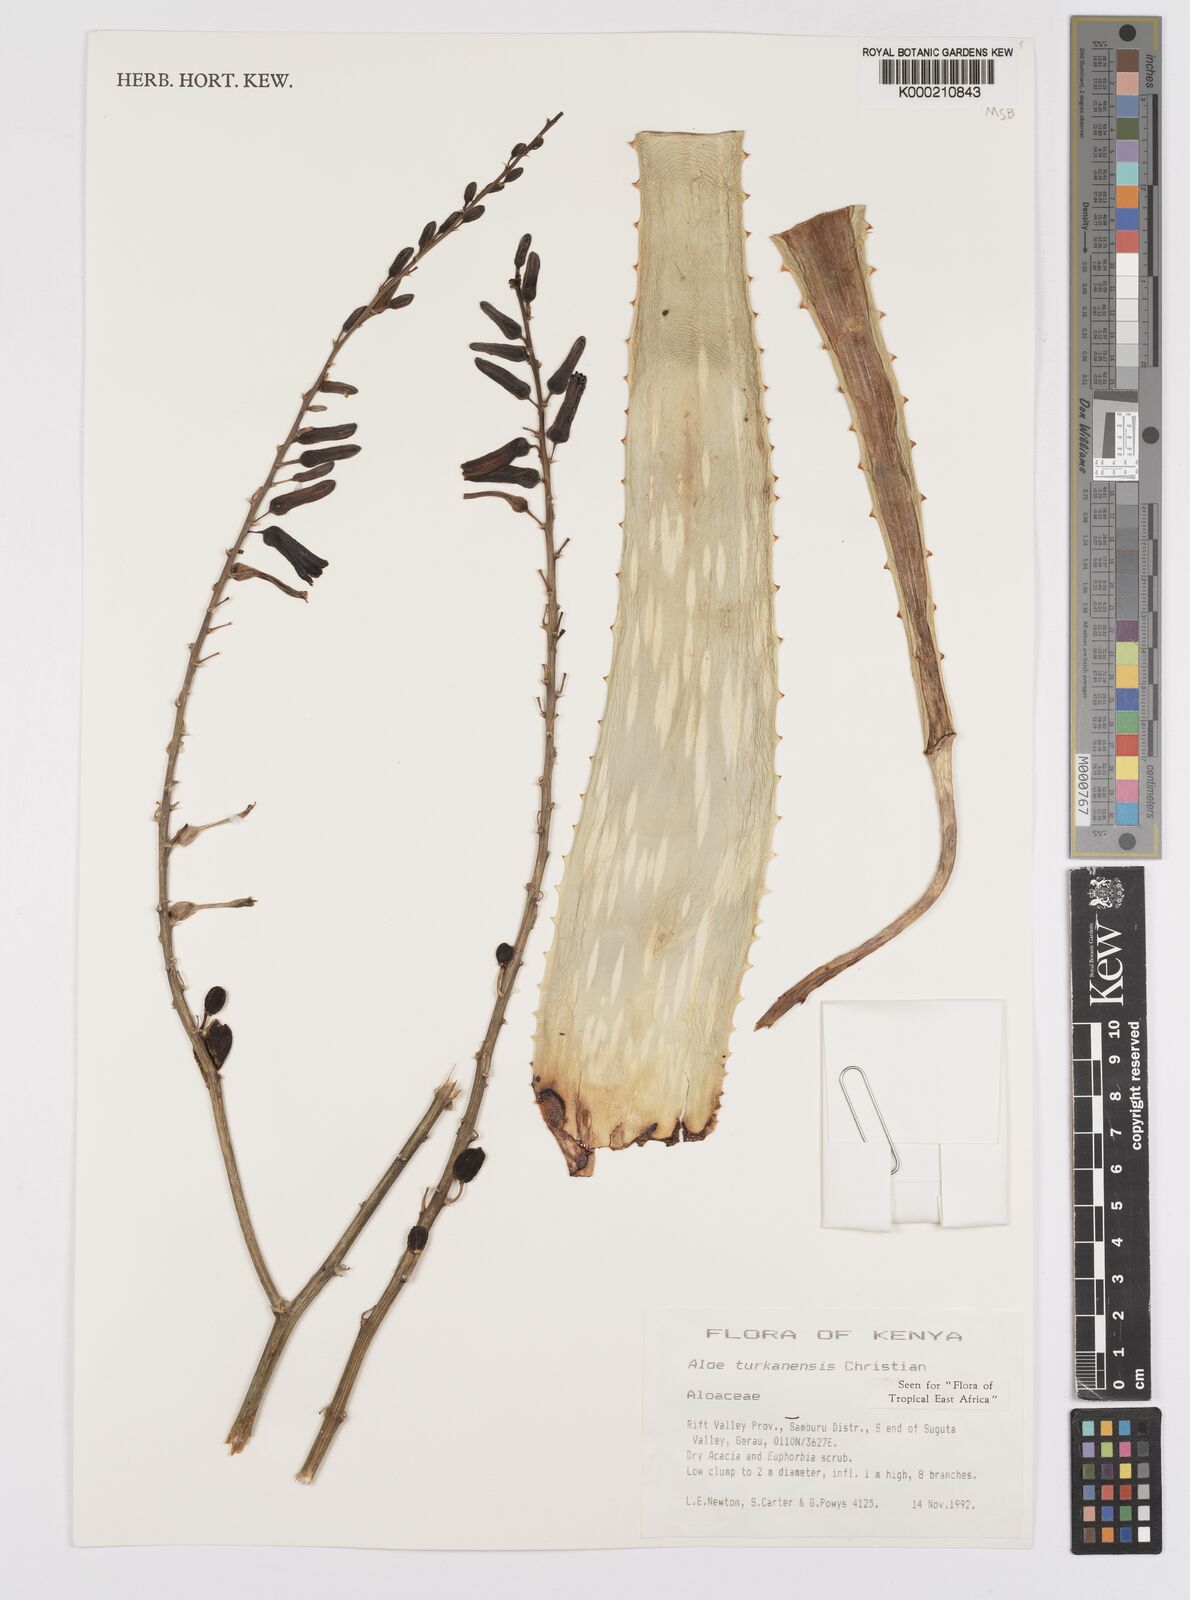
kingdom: Plantae
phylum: Tracheophyta
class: Liliopsida
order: Asparagales
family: Asphodelaceae
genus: Aloe
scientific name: Aloe turkanensis
